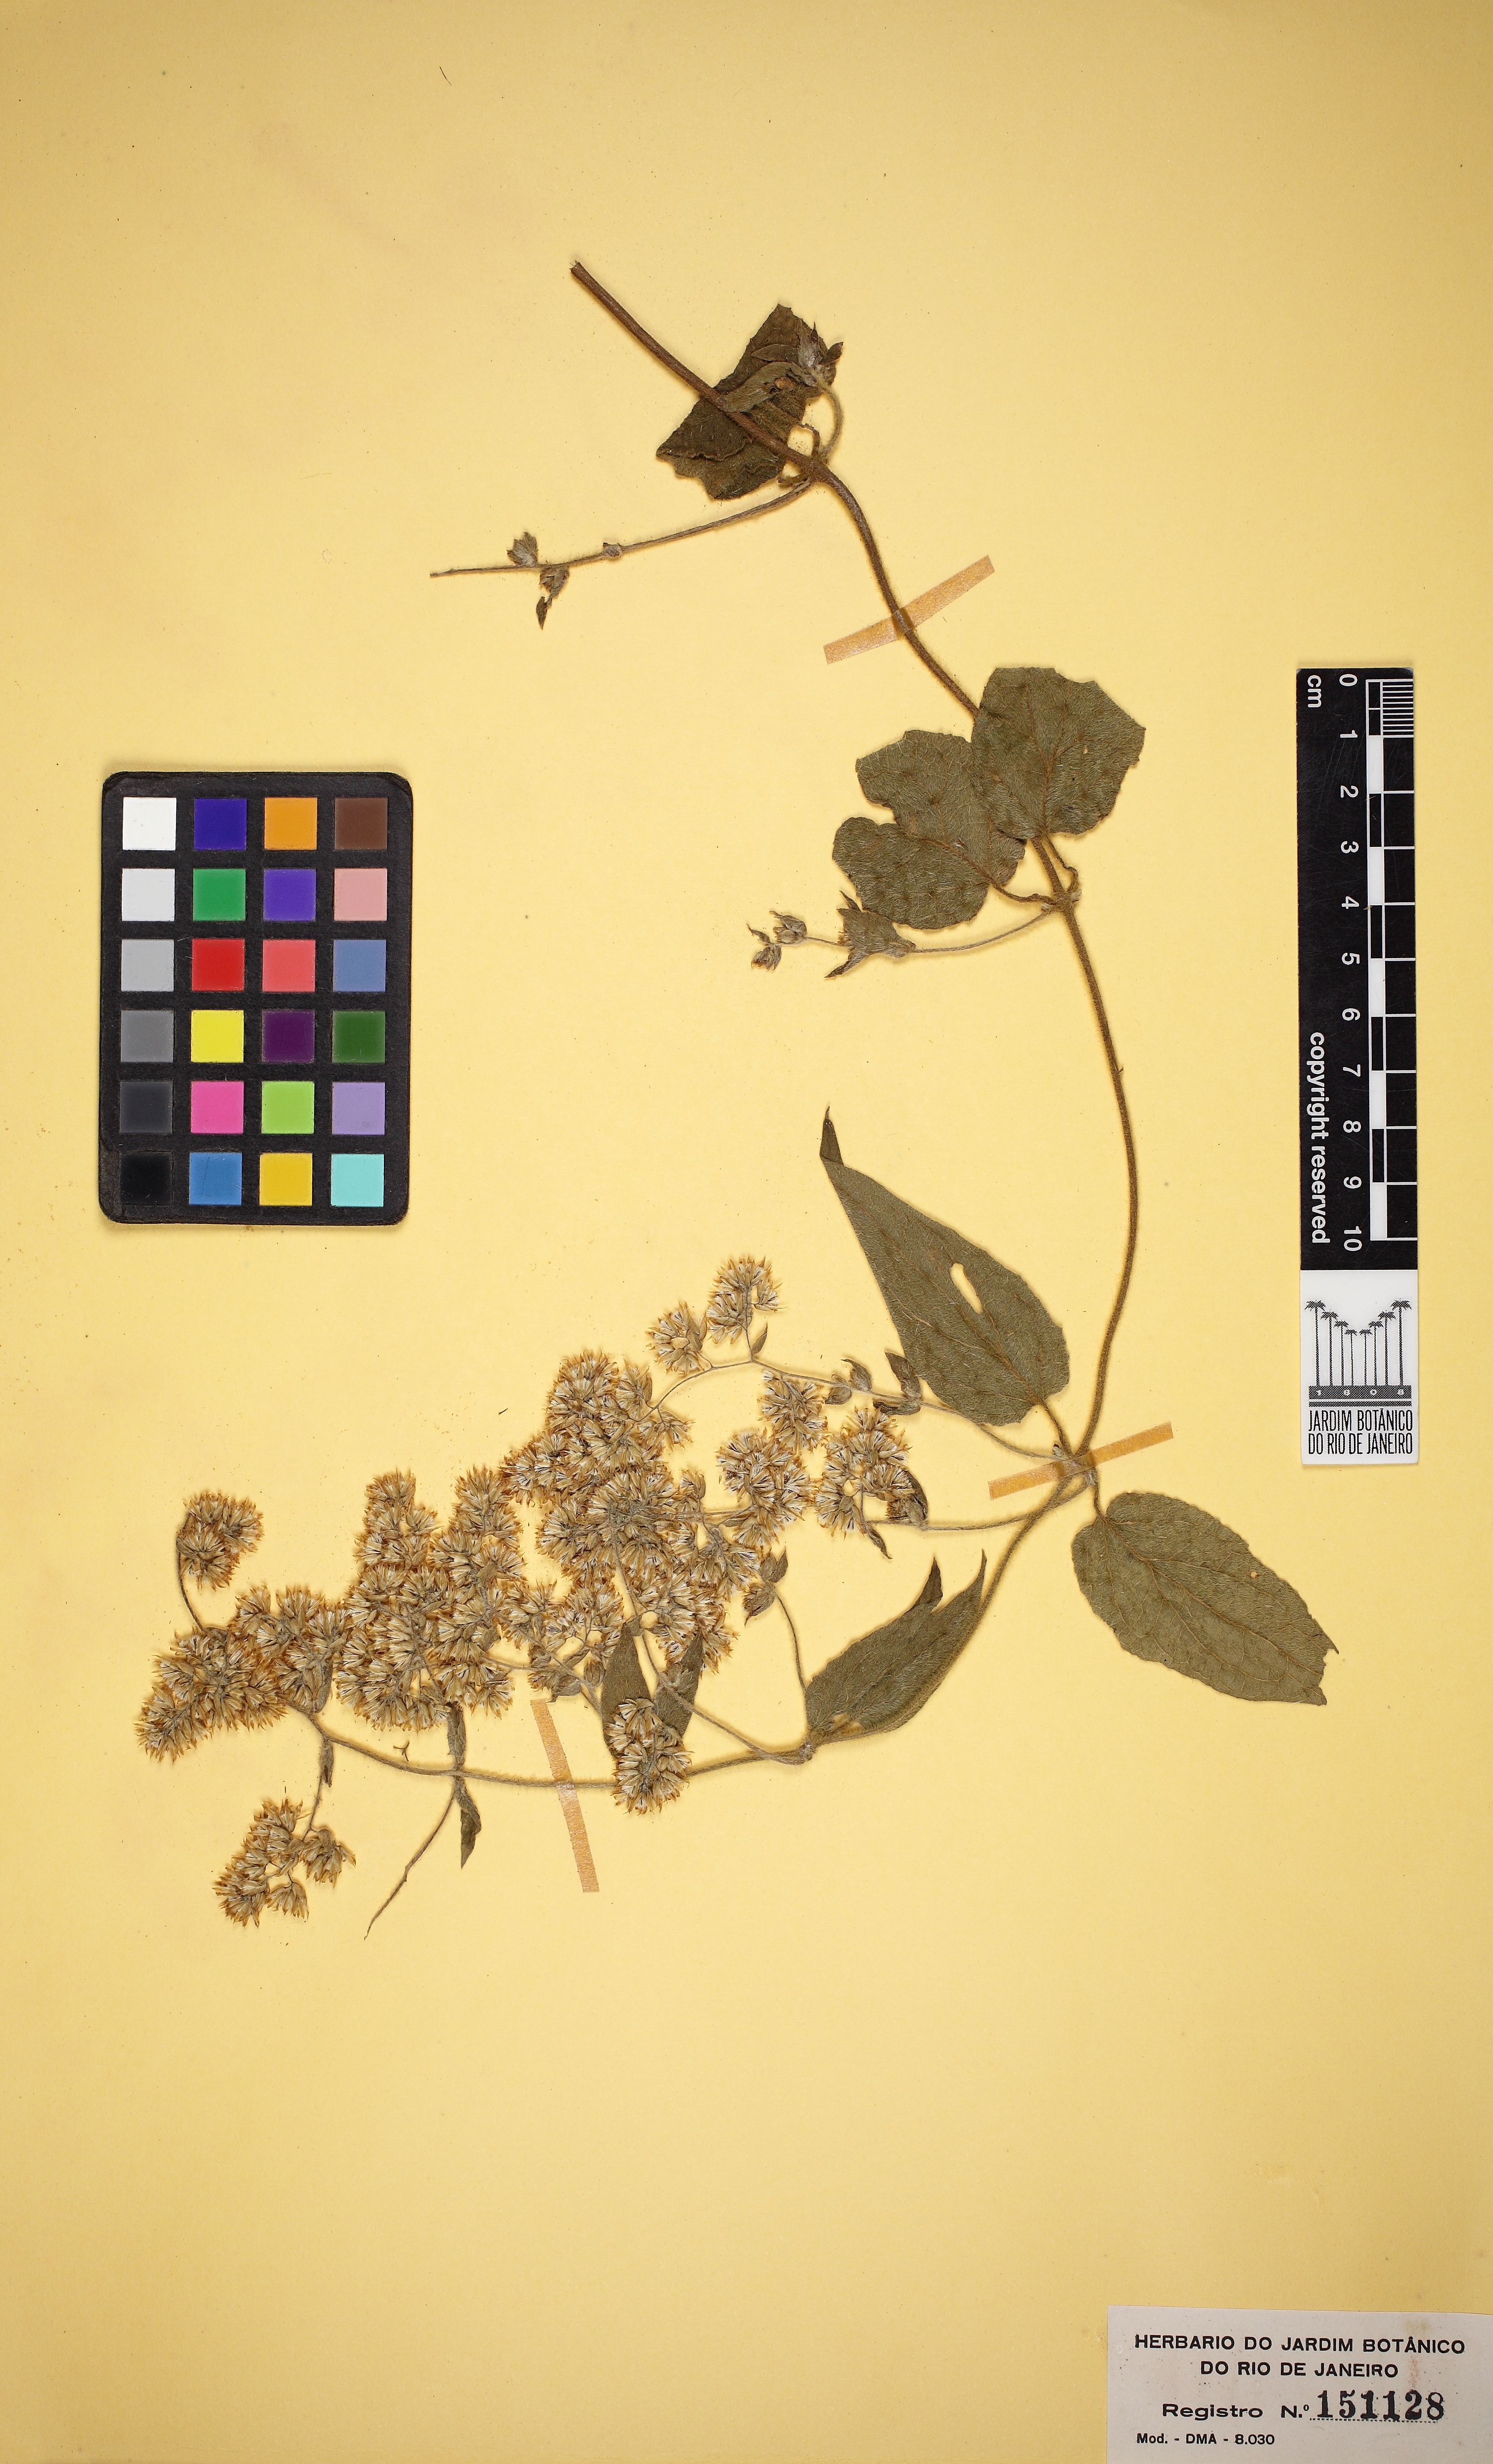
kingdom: Plantae
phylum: Tracheophyta
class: Magnoliopsida
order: Asterales
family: Asteraceae
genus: Mikania
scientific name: Mikania banisteriae
